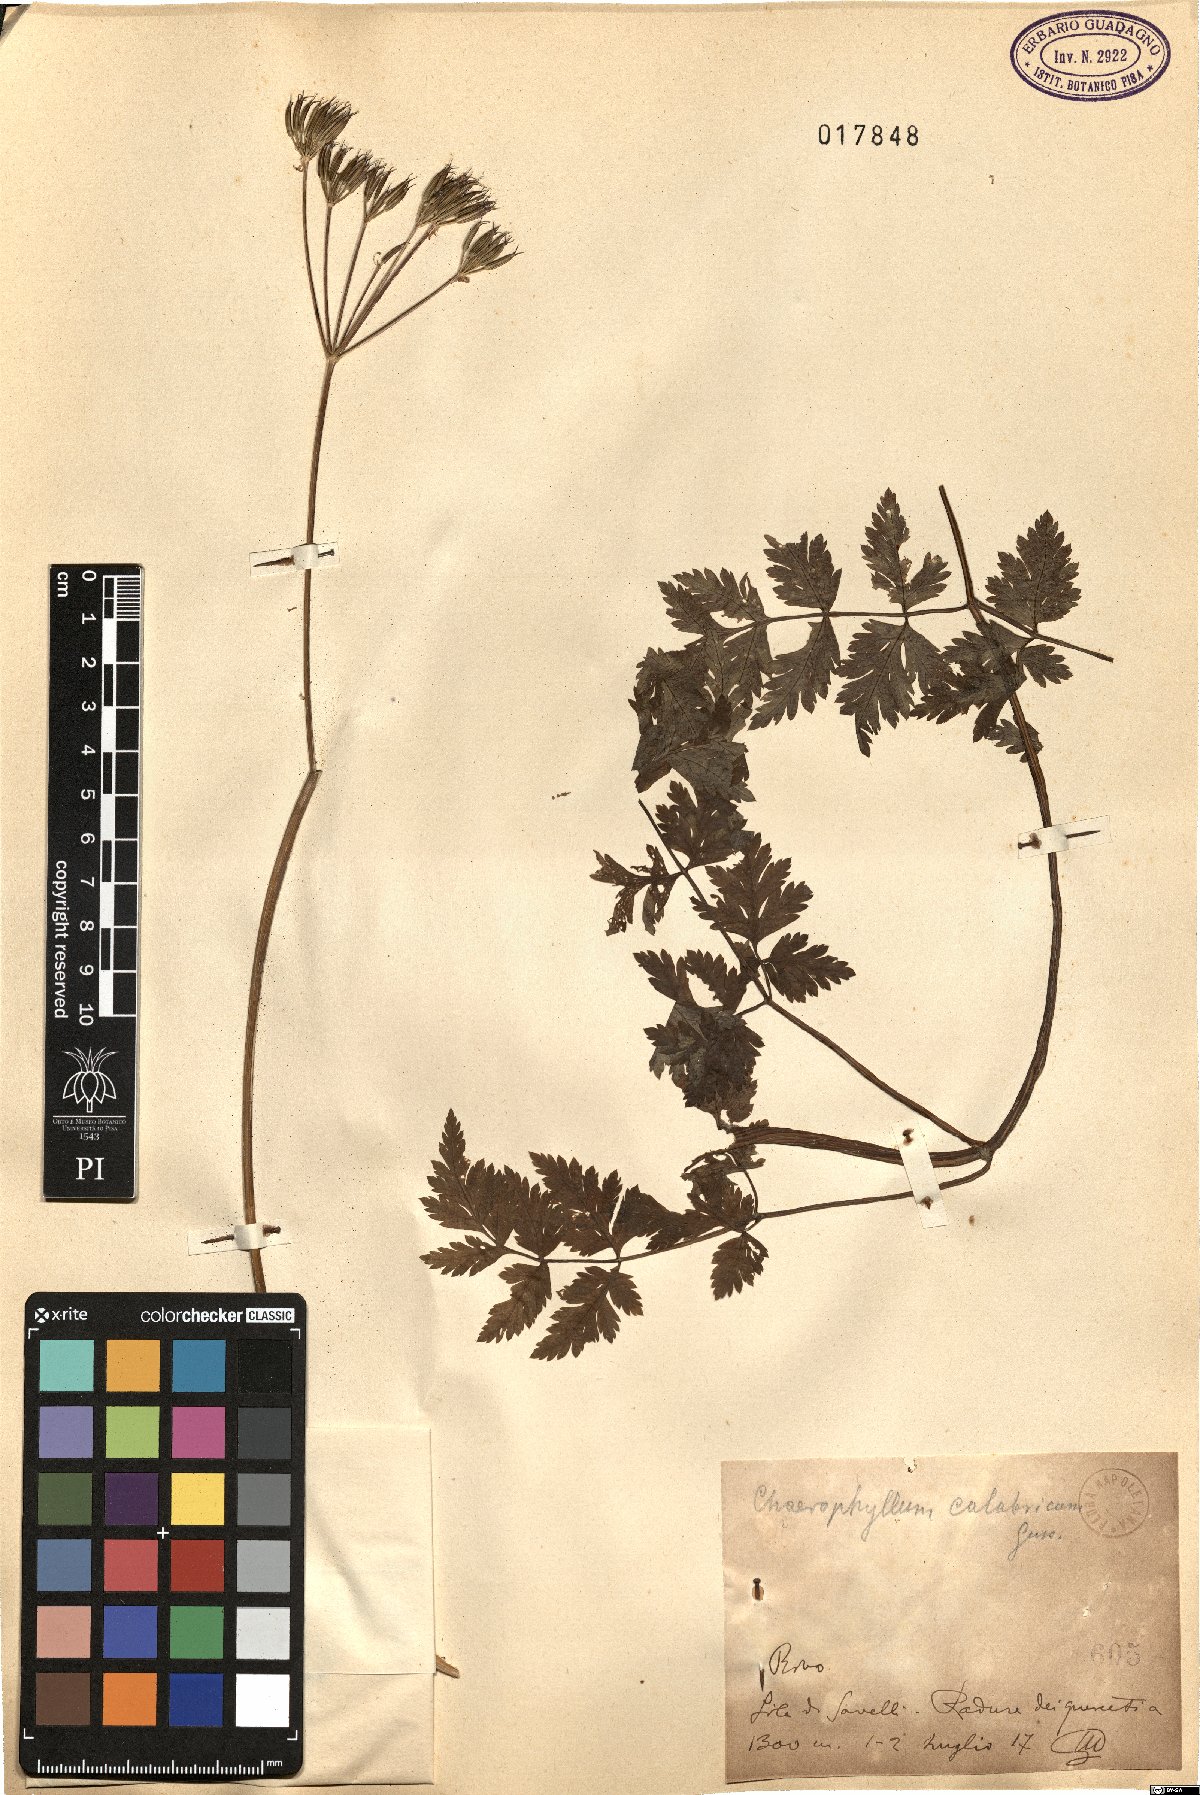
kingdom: Plantae
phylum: Tracheophyta
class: Magnoliopsida
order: Apiales
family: Apiaceae
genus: Chaerophyllum
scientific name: Chaerophyllum hirsutum
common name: Hairy chervil
